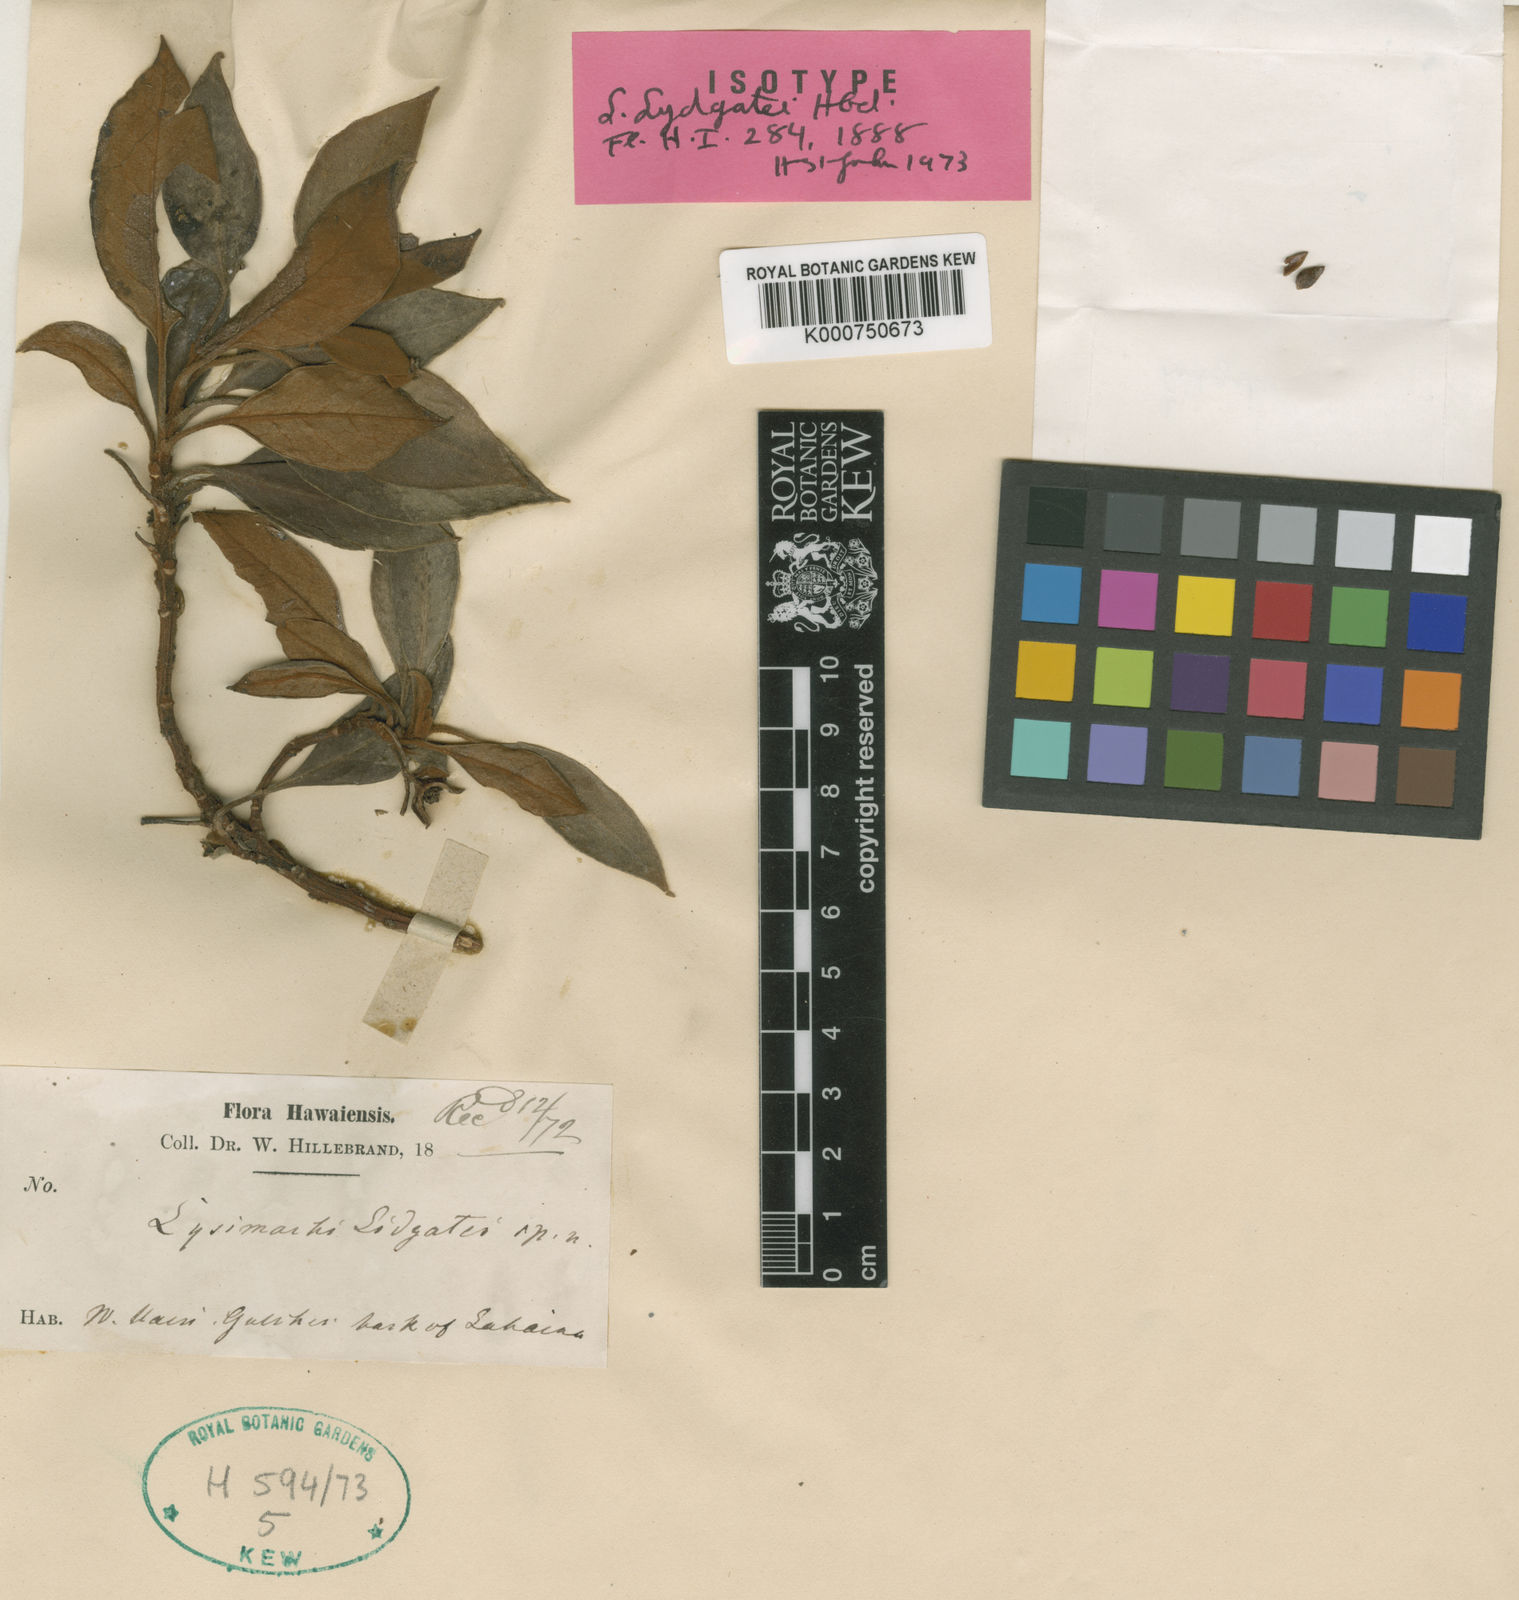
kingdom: Plantae
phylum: Tracheophyta
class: Magnoliopsida
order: Ericales
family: Primulaceae
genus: Lysimachia
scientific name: Lysimachia lydgatei
